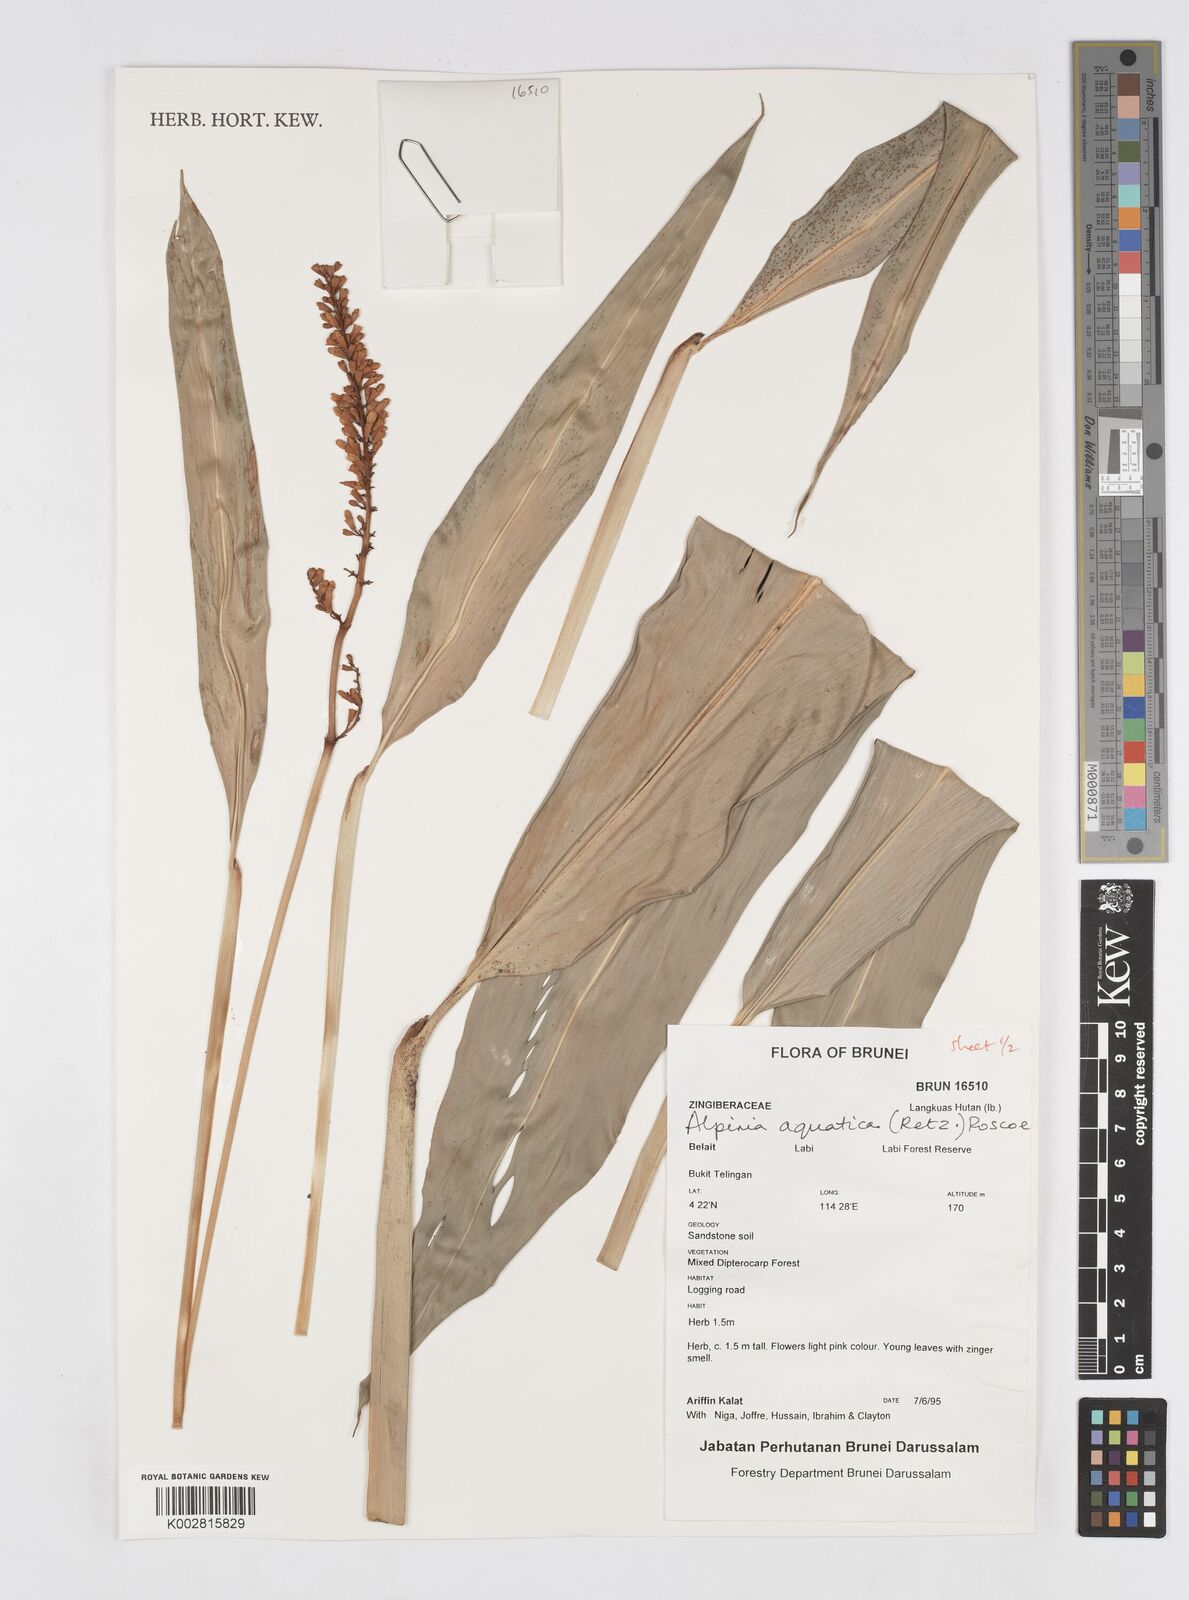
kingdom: Plantae
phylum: Tracheophyta
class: Liliopsida
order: Zingiberales
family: Zingiberaceae
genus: Alpinia
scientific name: Alpinia aquatica
